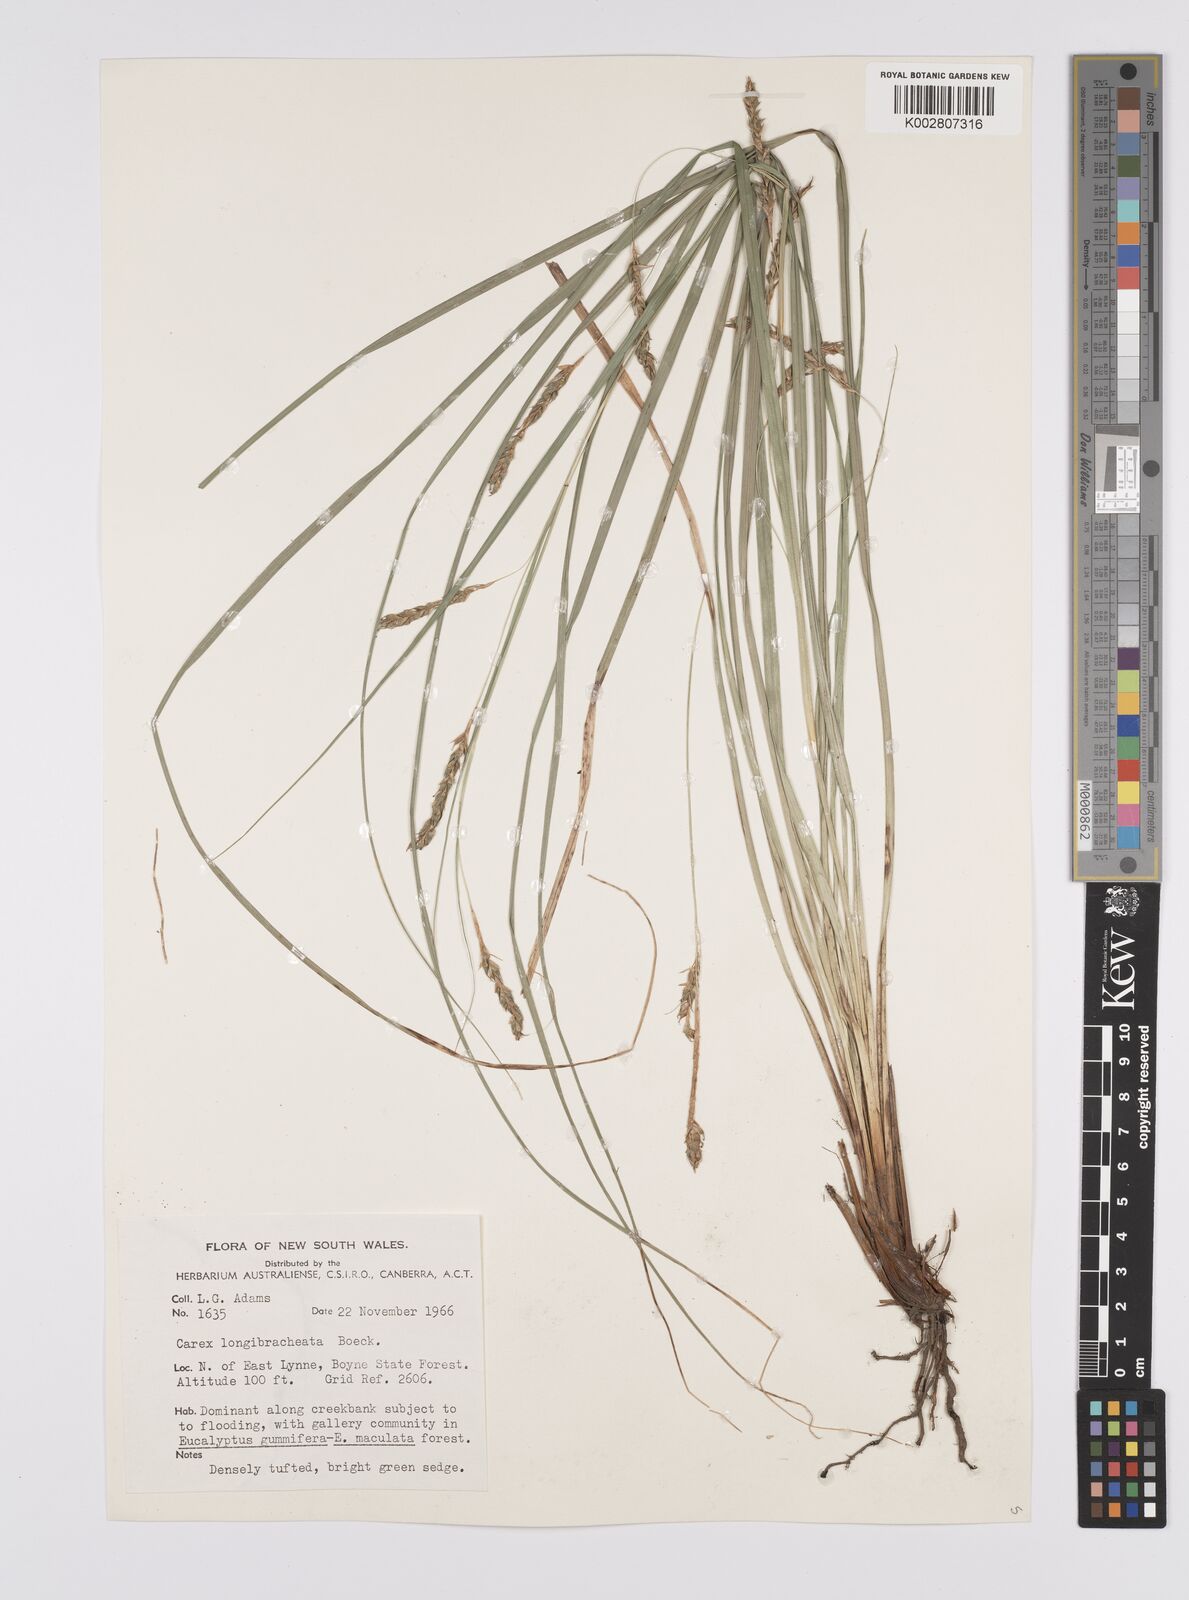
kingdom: Plantae
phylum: Tracheophyta
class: Liliopsida
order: Poales
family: Cyperaceae
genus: Carex
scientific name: Carex pseudocyperus
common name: Cyperus sedge
